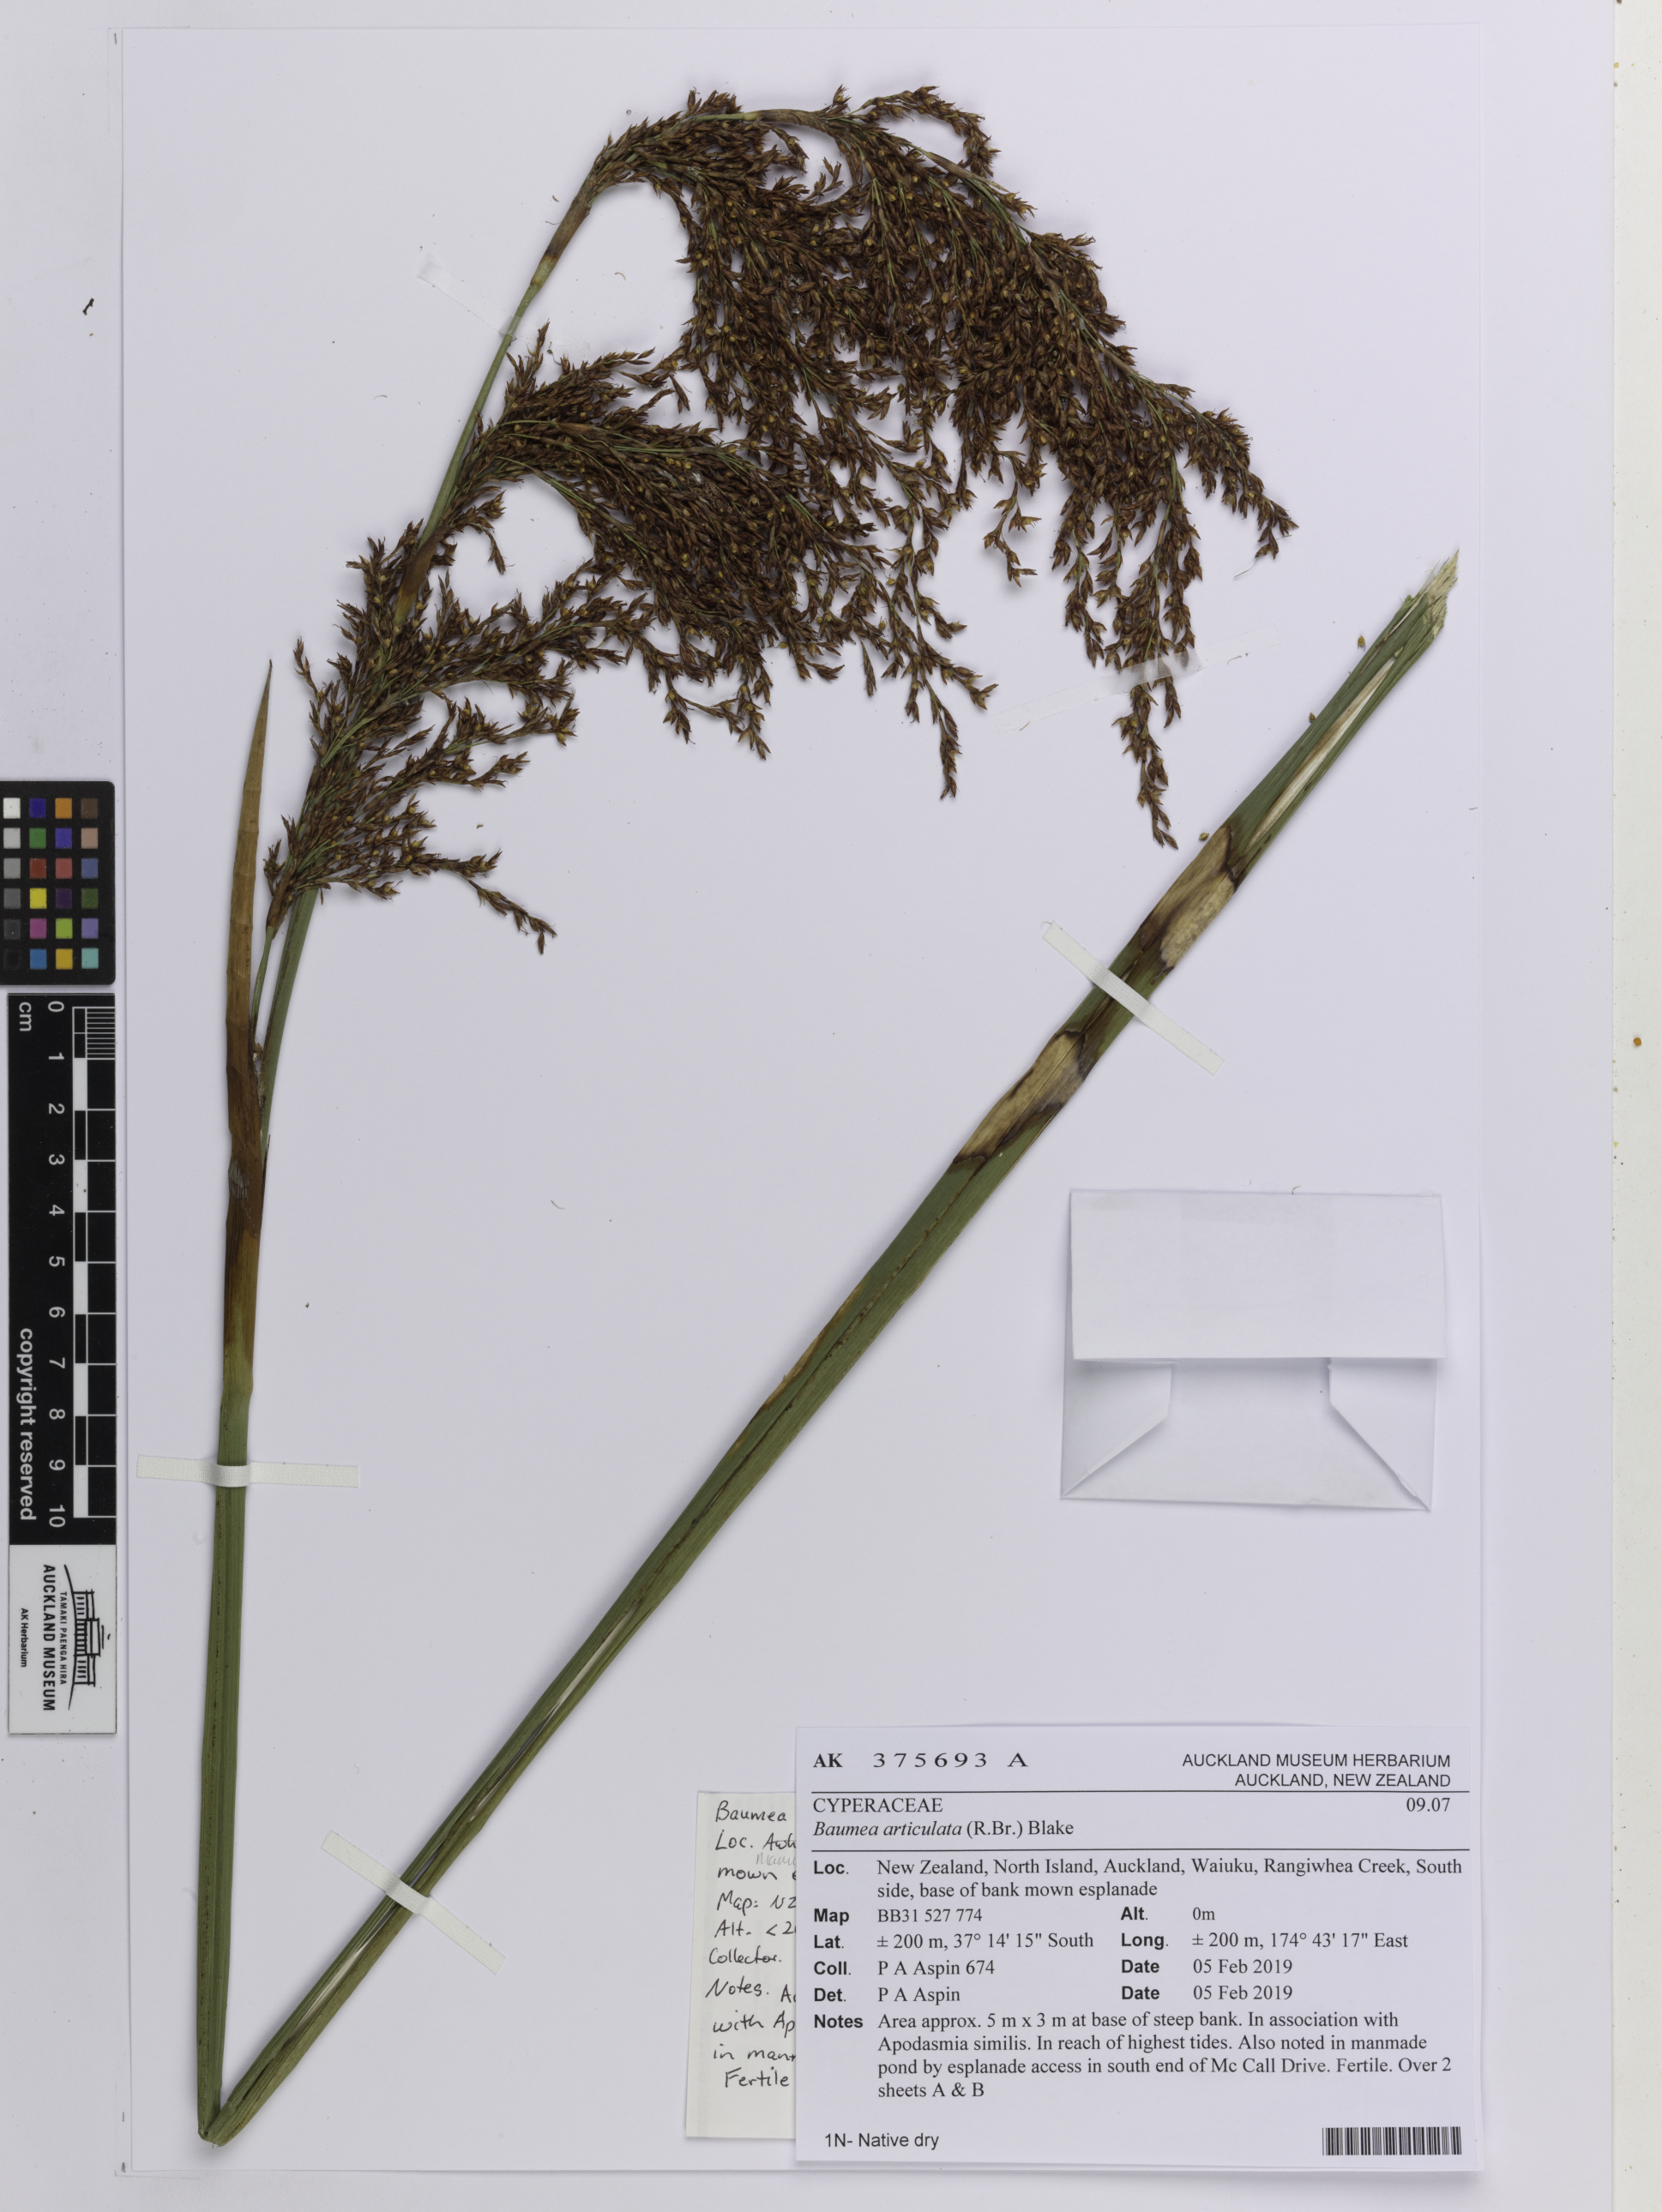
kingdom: Plantae
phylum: Tracheophyta
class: Liliopsida
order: Poales
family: Cyperaceae
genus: Machaerina
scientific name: Machaerina articulata
